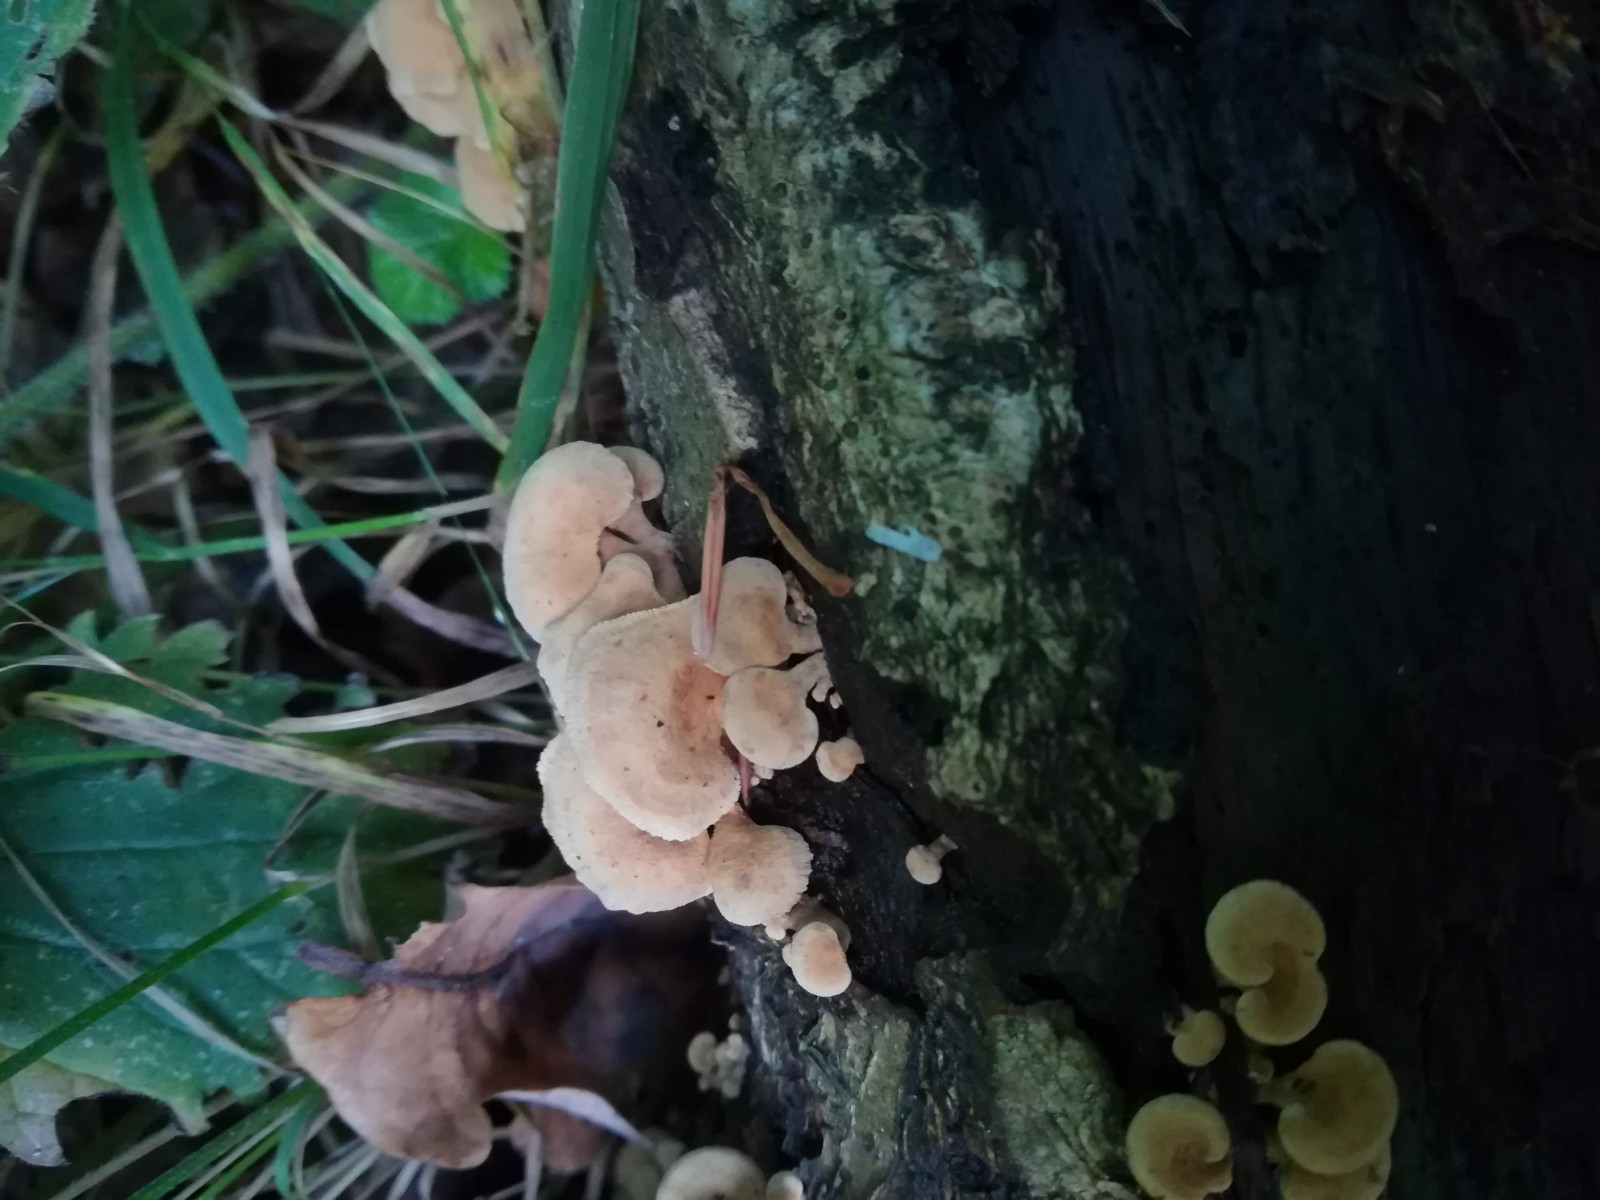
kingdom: Fungi
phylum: Basidiomycota
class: Agaricomycetes
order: Agaricales
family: Mycenaceae
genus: Panellus
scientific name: Panellus stipticus
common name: kliddet epaulethat
